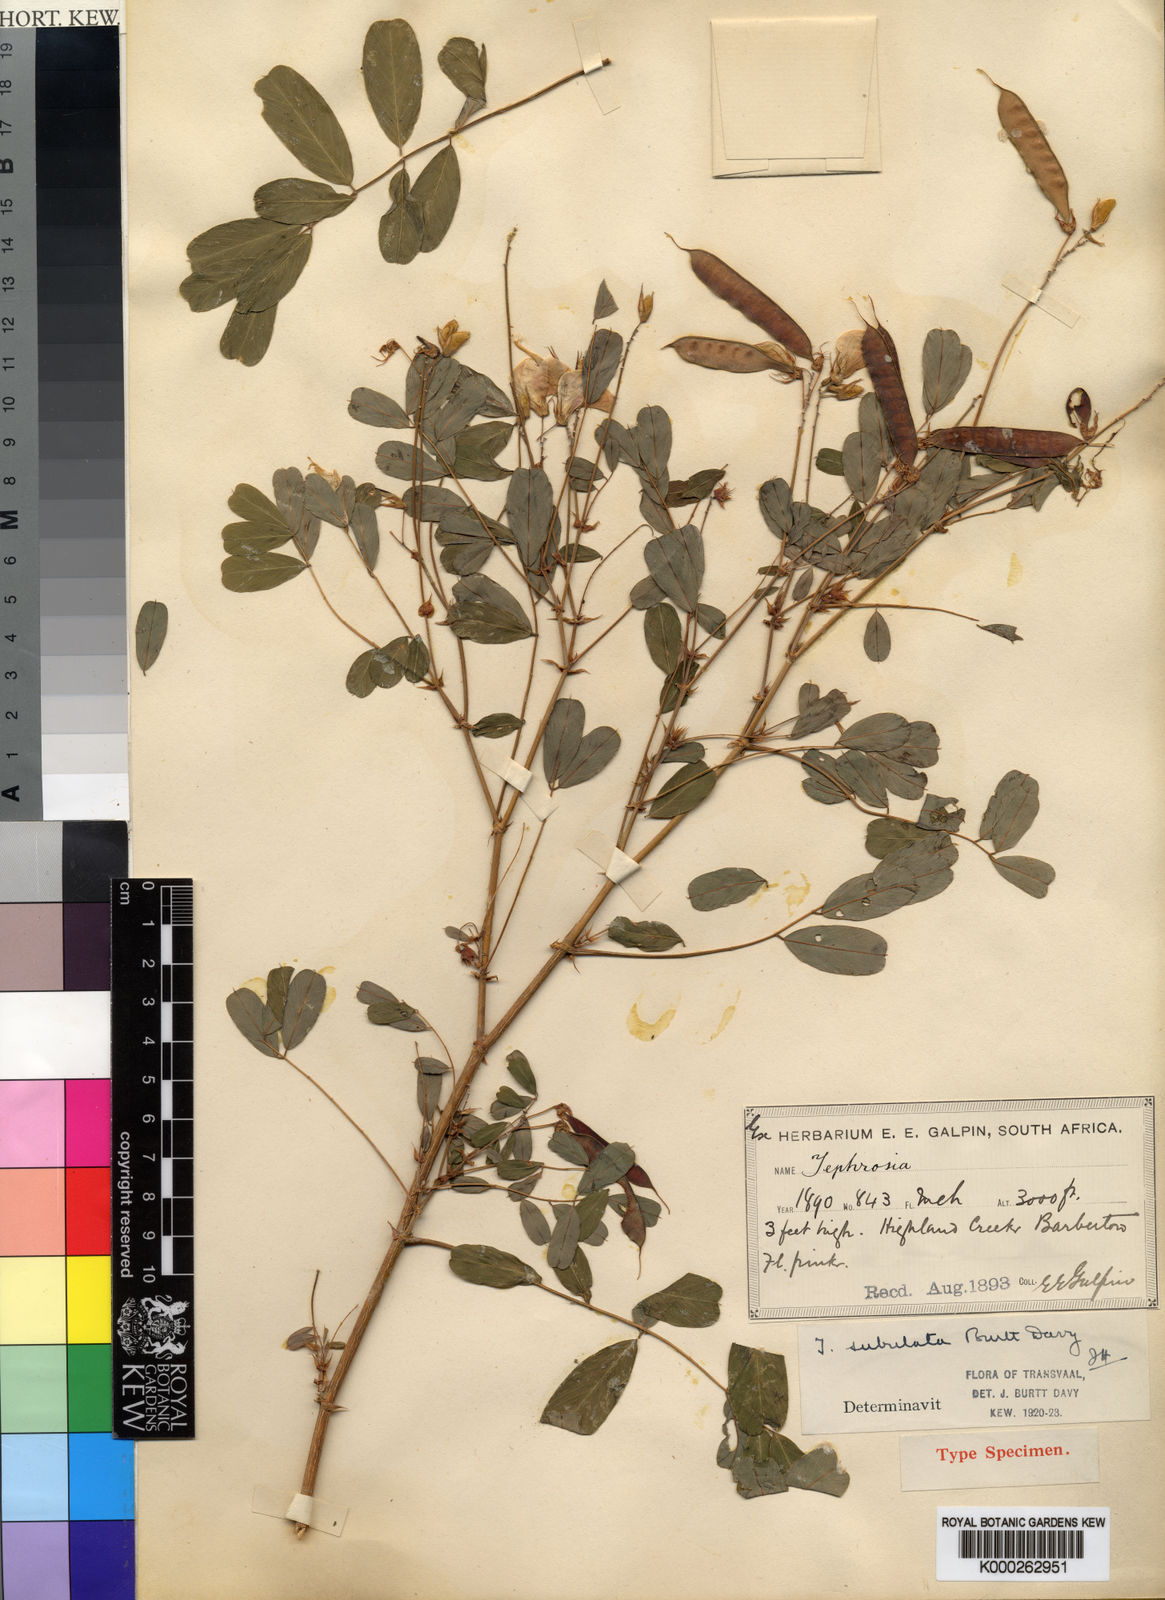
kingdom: Plantae
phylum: Tracheophyta
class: Magnoliopsida
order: Fabales
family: Fabaceae
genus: Tephrosia
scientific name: Tephrosia subulata
